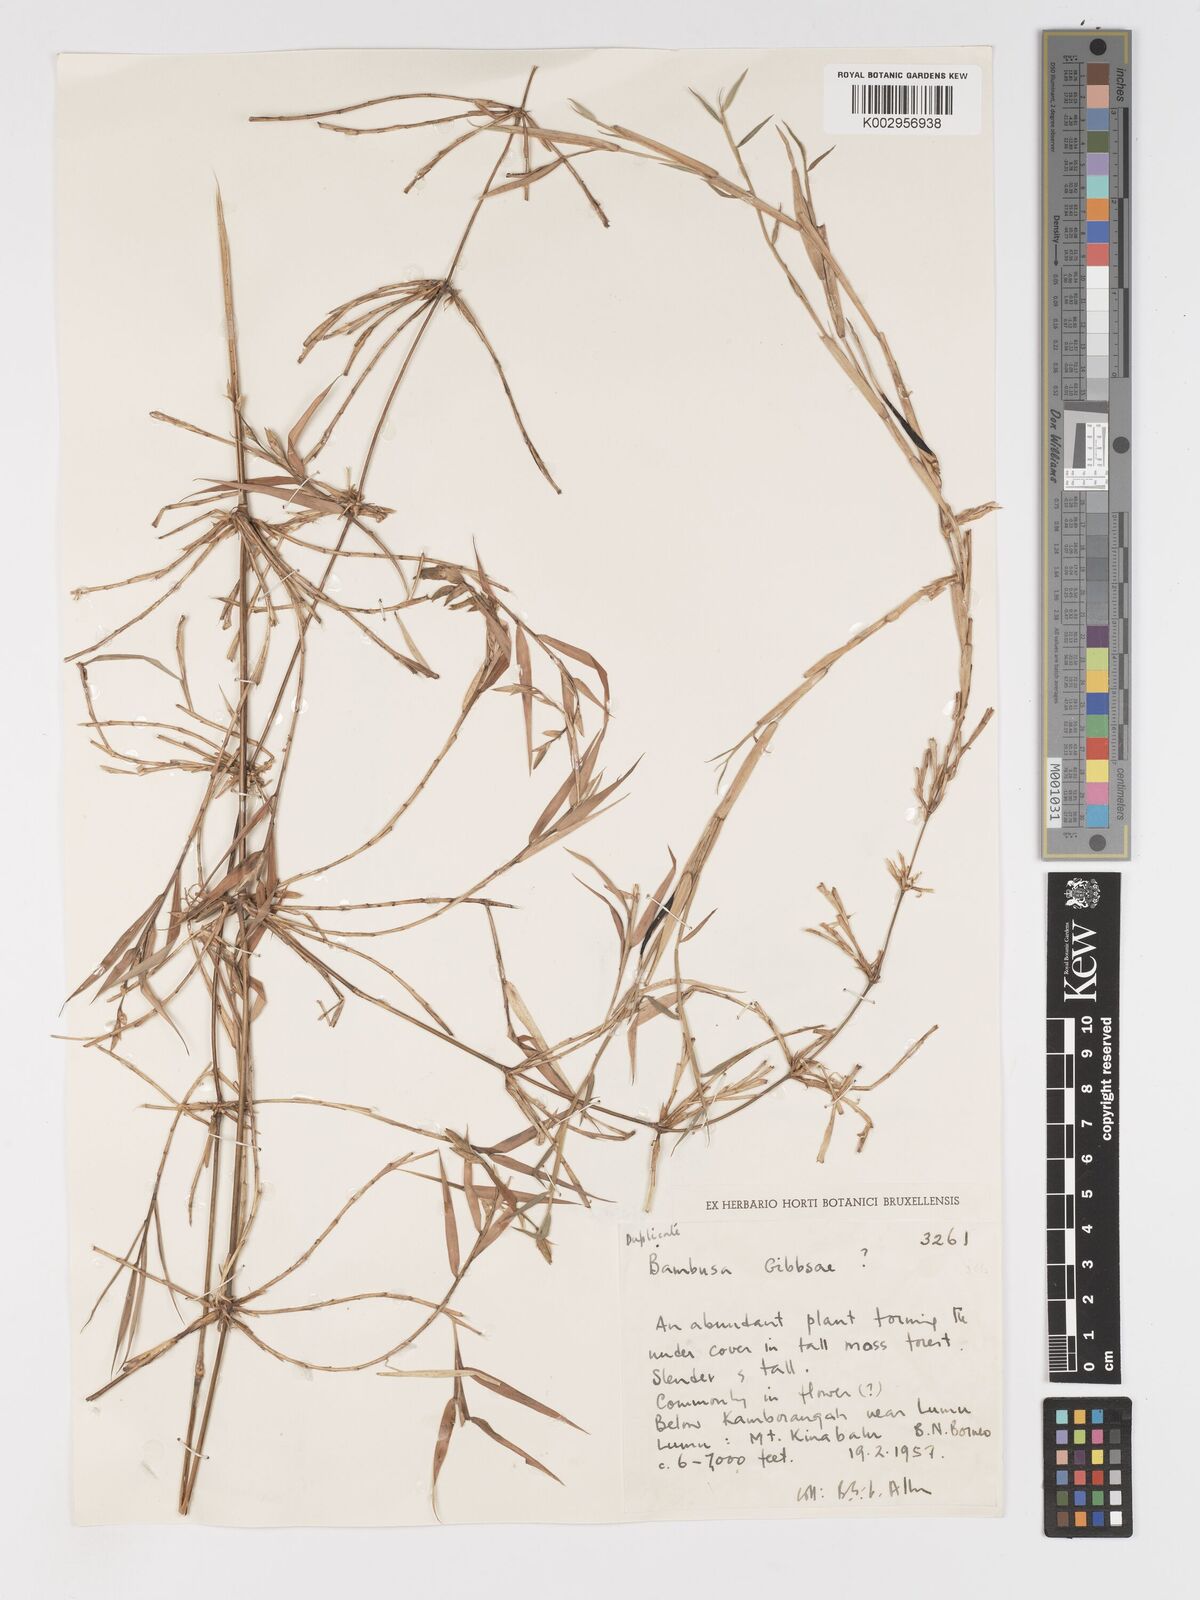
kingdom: Plantae
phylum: Tracheophyta
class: Liliopsida
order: Poales
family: Poaceae
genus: Racemobambos
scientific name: Racemobambos gibbsiae
